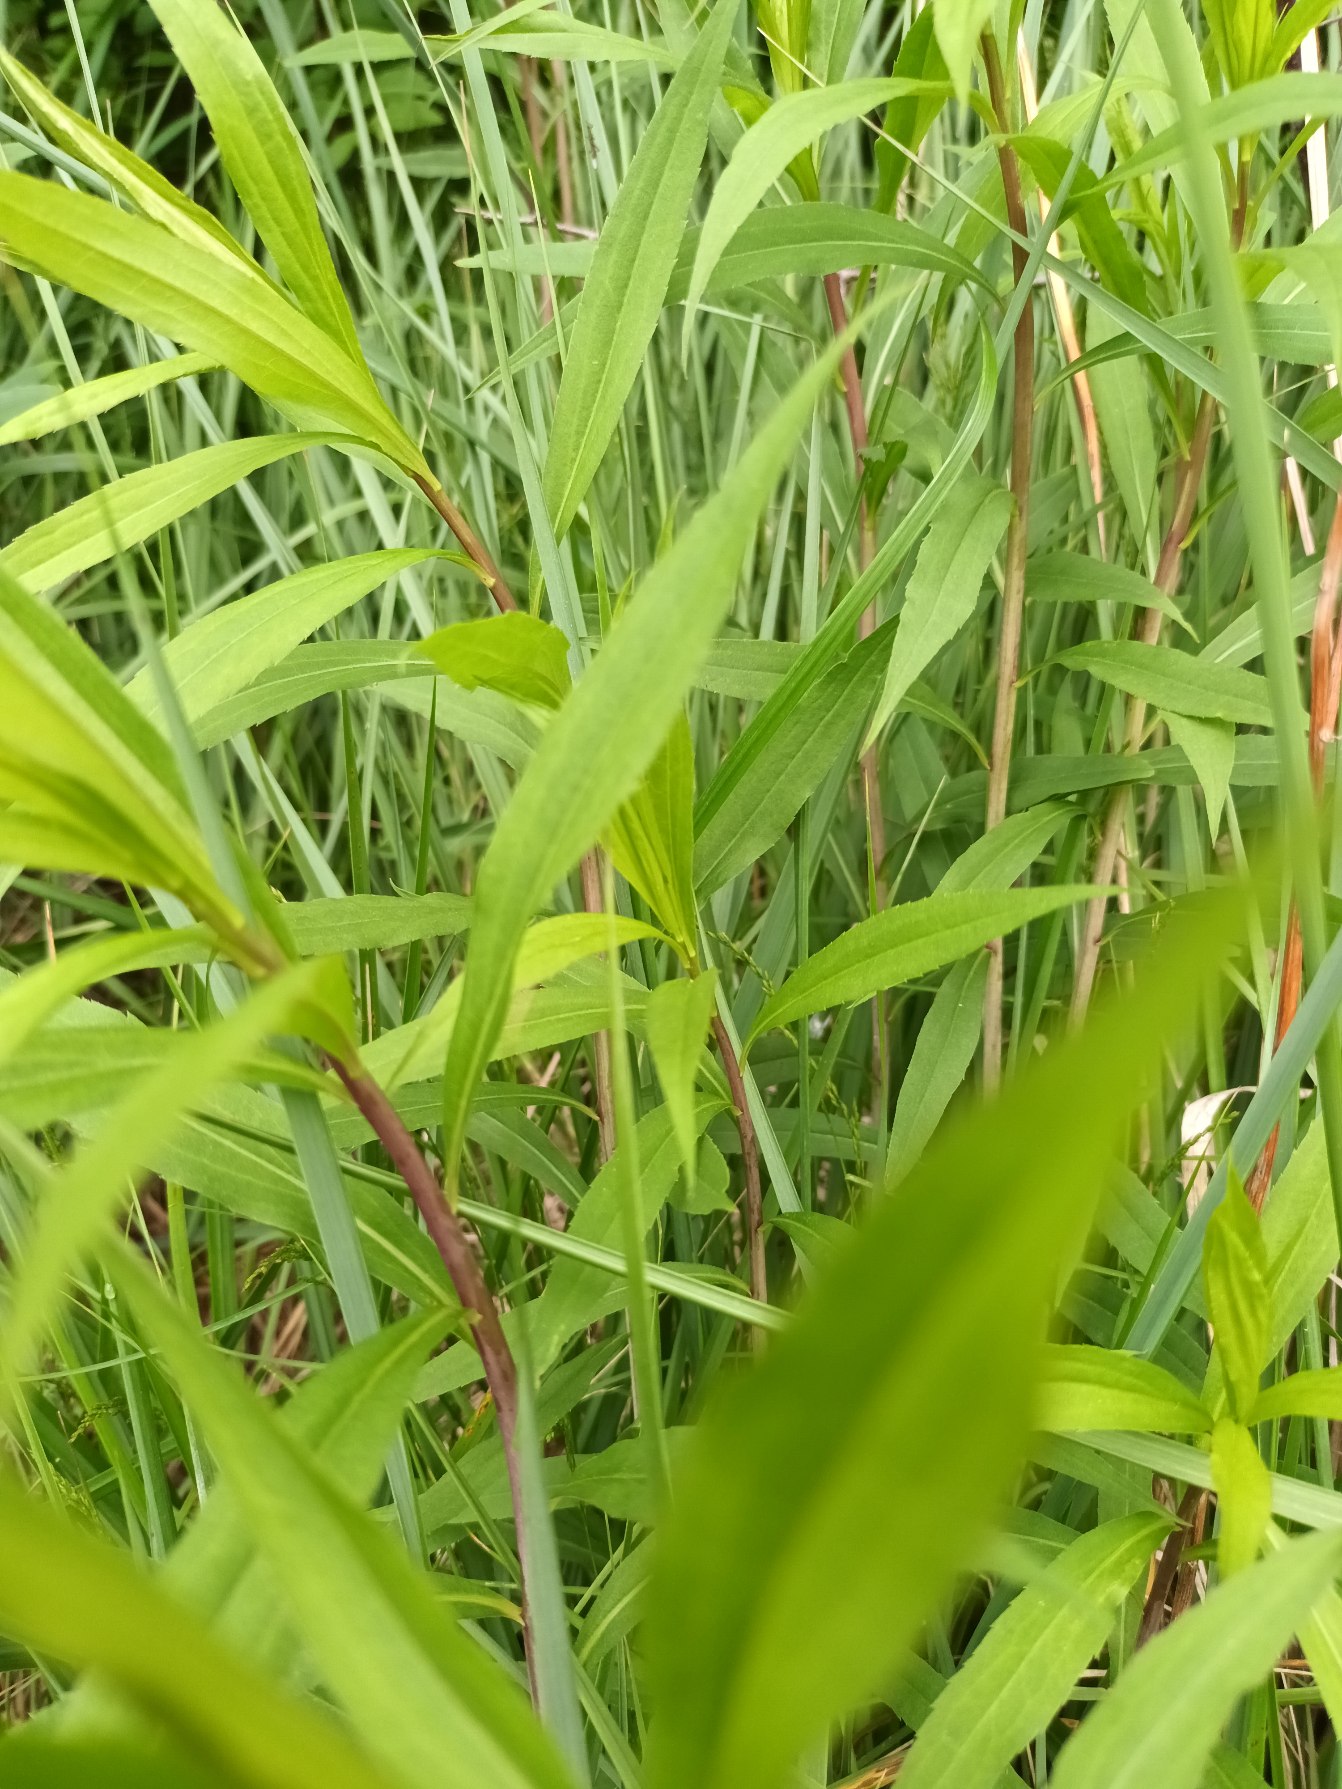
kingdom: Plantae
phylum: Tracheophyta
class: Magnoliopsida
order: Asterales
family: Asteraceae
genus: Solidago
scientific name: Solidago gigantea
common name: Sildig gyldenris
